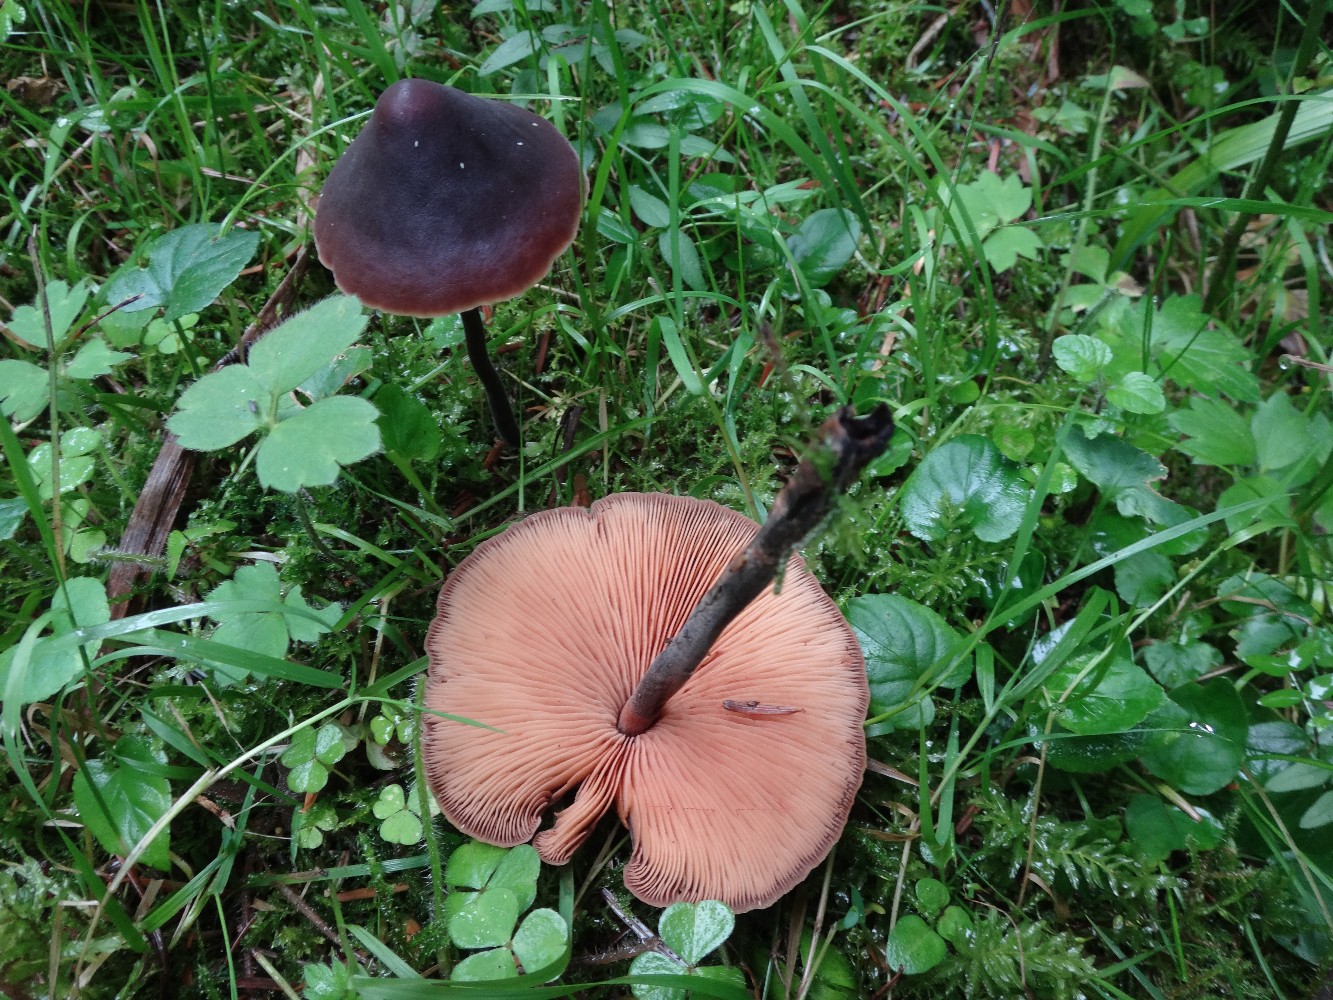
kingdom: Fungi
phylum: Basidiomycota
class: Agaricomycetes
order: Agaricales
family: Macrocystidiaceae
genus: Macrocystidia
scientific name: Macrocystidia cucumis
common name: agurkehat
